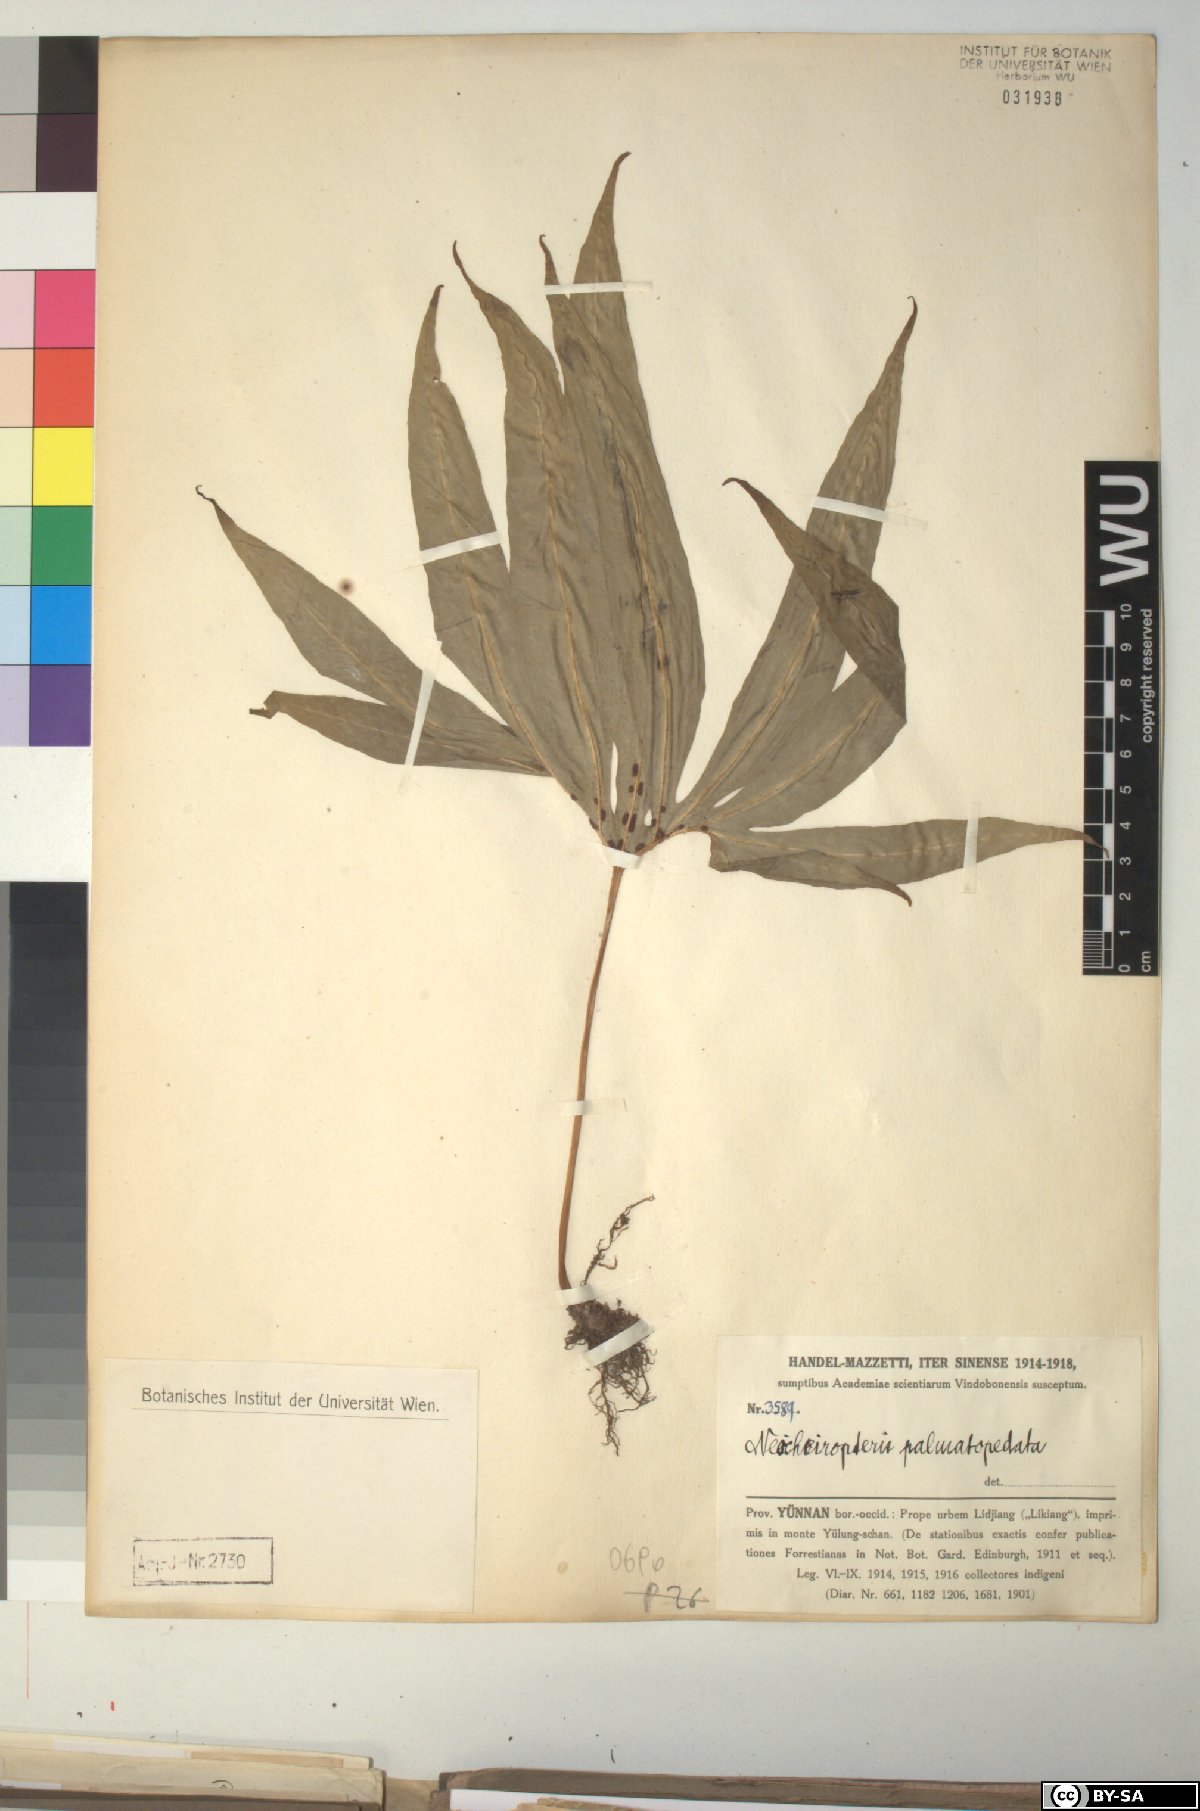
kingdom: Plantae
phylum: Tracheophyta
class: Polypodiopsida
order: Polypodiales
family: Polypodiaceae
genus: Lepisorus
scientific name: Lepisorus palmatopedatus
